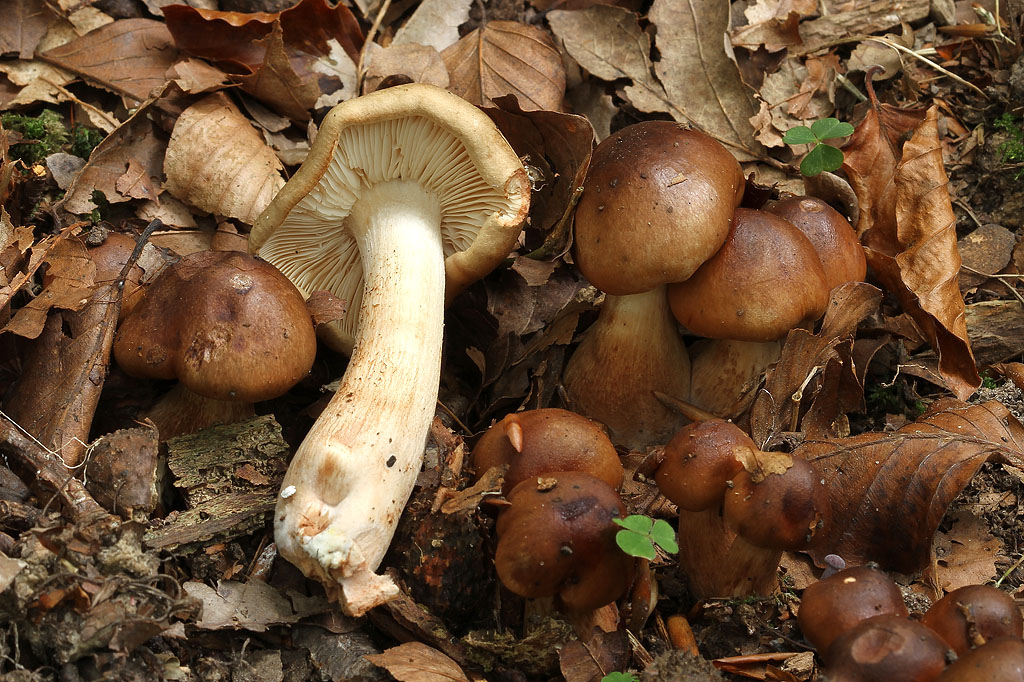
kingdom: Fungi
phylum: Basidiomycota
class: Agaricomycetes
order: Agaricales
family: Tricholomataceae
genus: Tricholoma
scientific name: Tricholoma ustale
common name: sveden ridderhat
